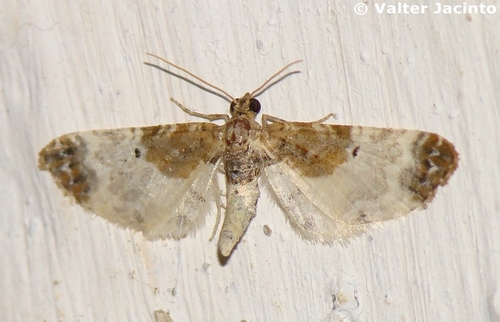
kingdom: Animalia
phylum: Arthropoda
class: Insecta
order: Lepidoptera
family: Geometridae
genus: Eupithecia
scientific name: Eupithecia breviculata
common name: Rusty-shouldered pug
